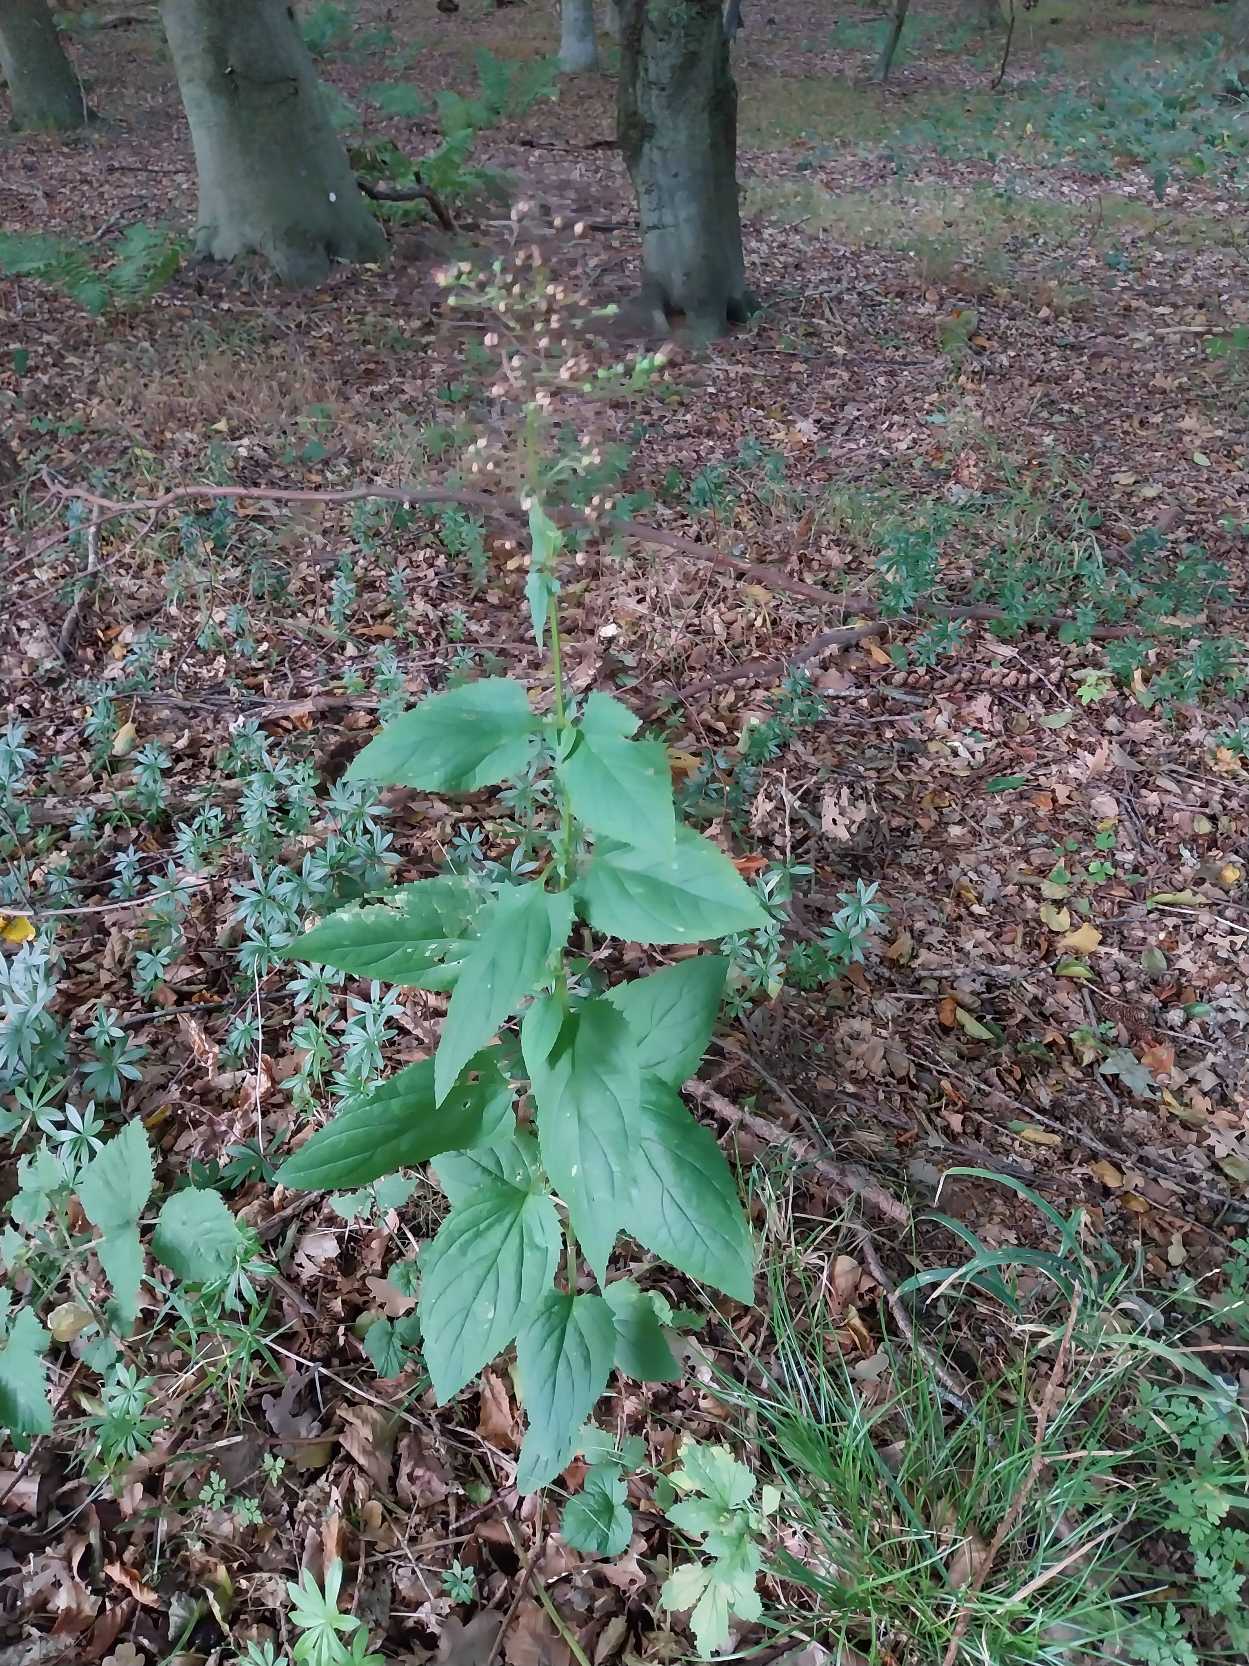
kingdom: Plantae
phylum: Tracheophyta
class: Magnoliopsida
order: Lamiales
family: Scrophulariaceae
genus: Scrophularia
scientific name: Scrophularia nodosa
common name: Knoldet brunrod
